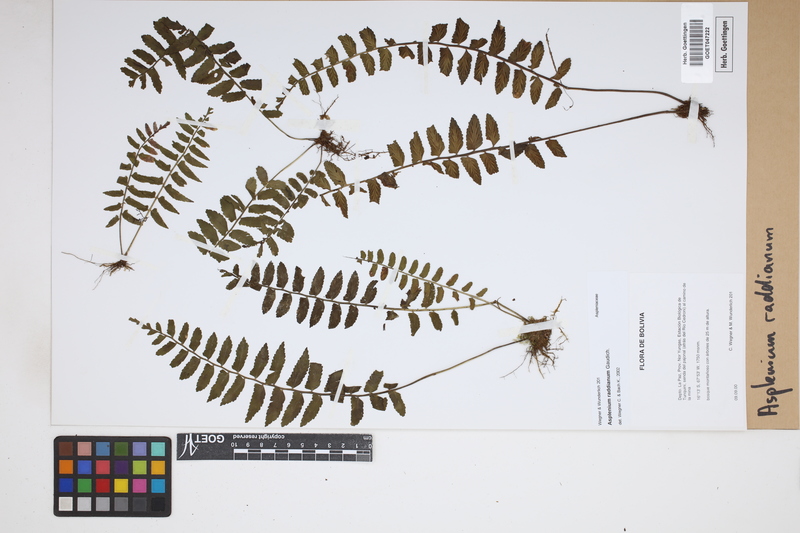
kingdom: Plantae
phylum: Tracheophyta
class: Polypodiopsida
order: Polypodiales
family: Aspleniaceae
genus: Asplenium
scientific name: Asplenium raddianum
